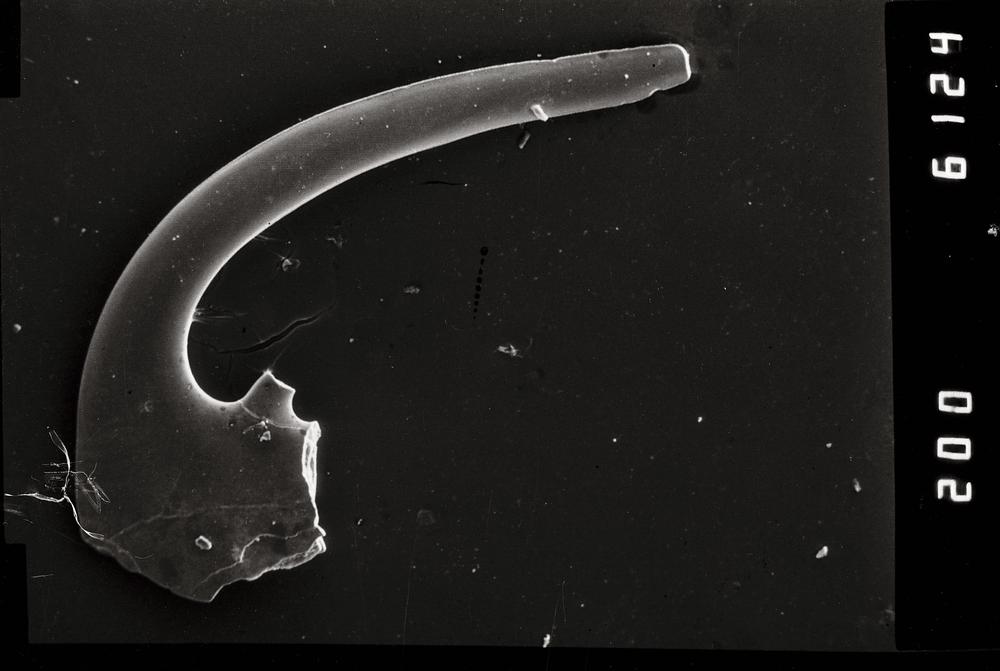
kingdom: Animalia
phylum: Chordata
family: Cordylodontidae
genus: Cordylodus
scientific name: Cordylodus
